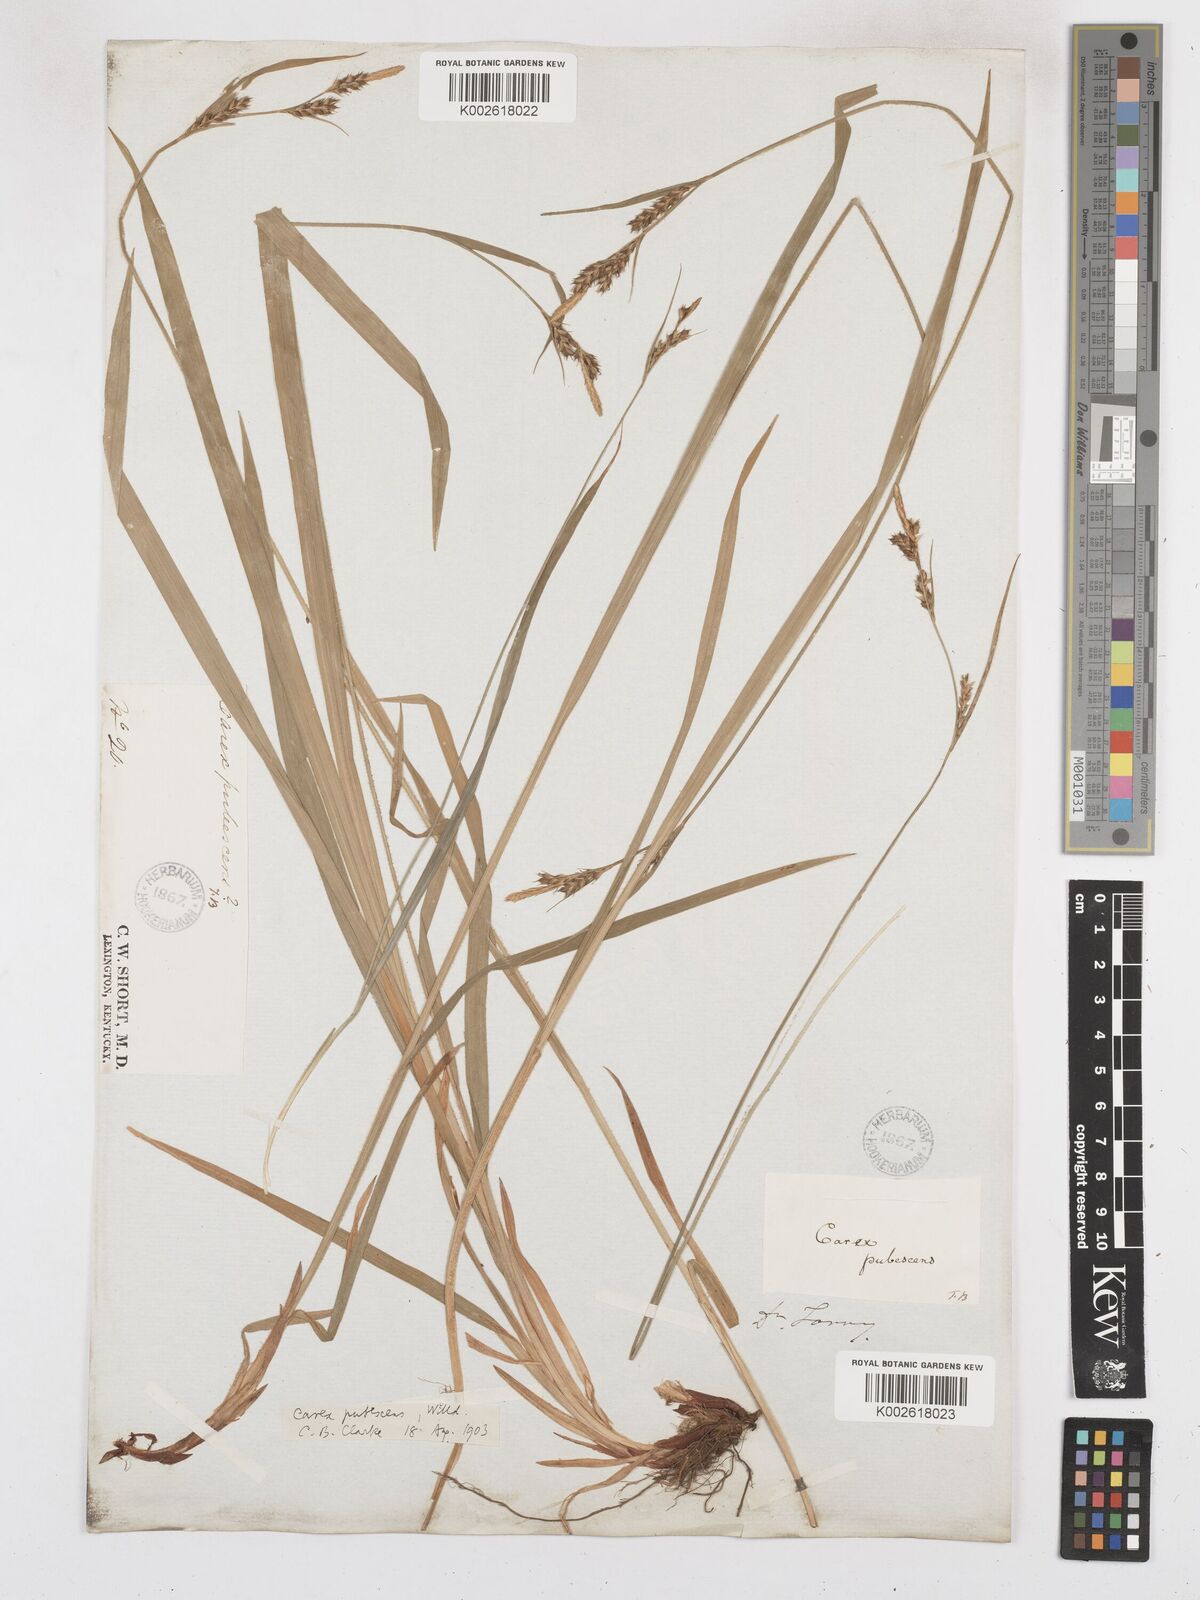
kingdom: Plantae
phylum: Tracheophyta
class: Liliopsida
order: Poales
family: Cyperaceae
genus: Carex
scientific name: Carex hirtifolia
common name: Hairy sedge
